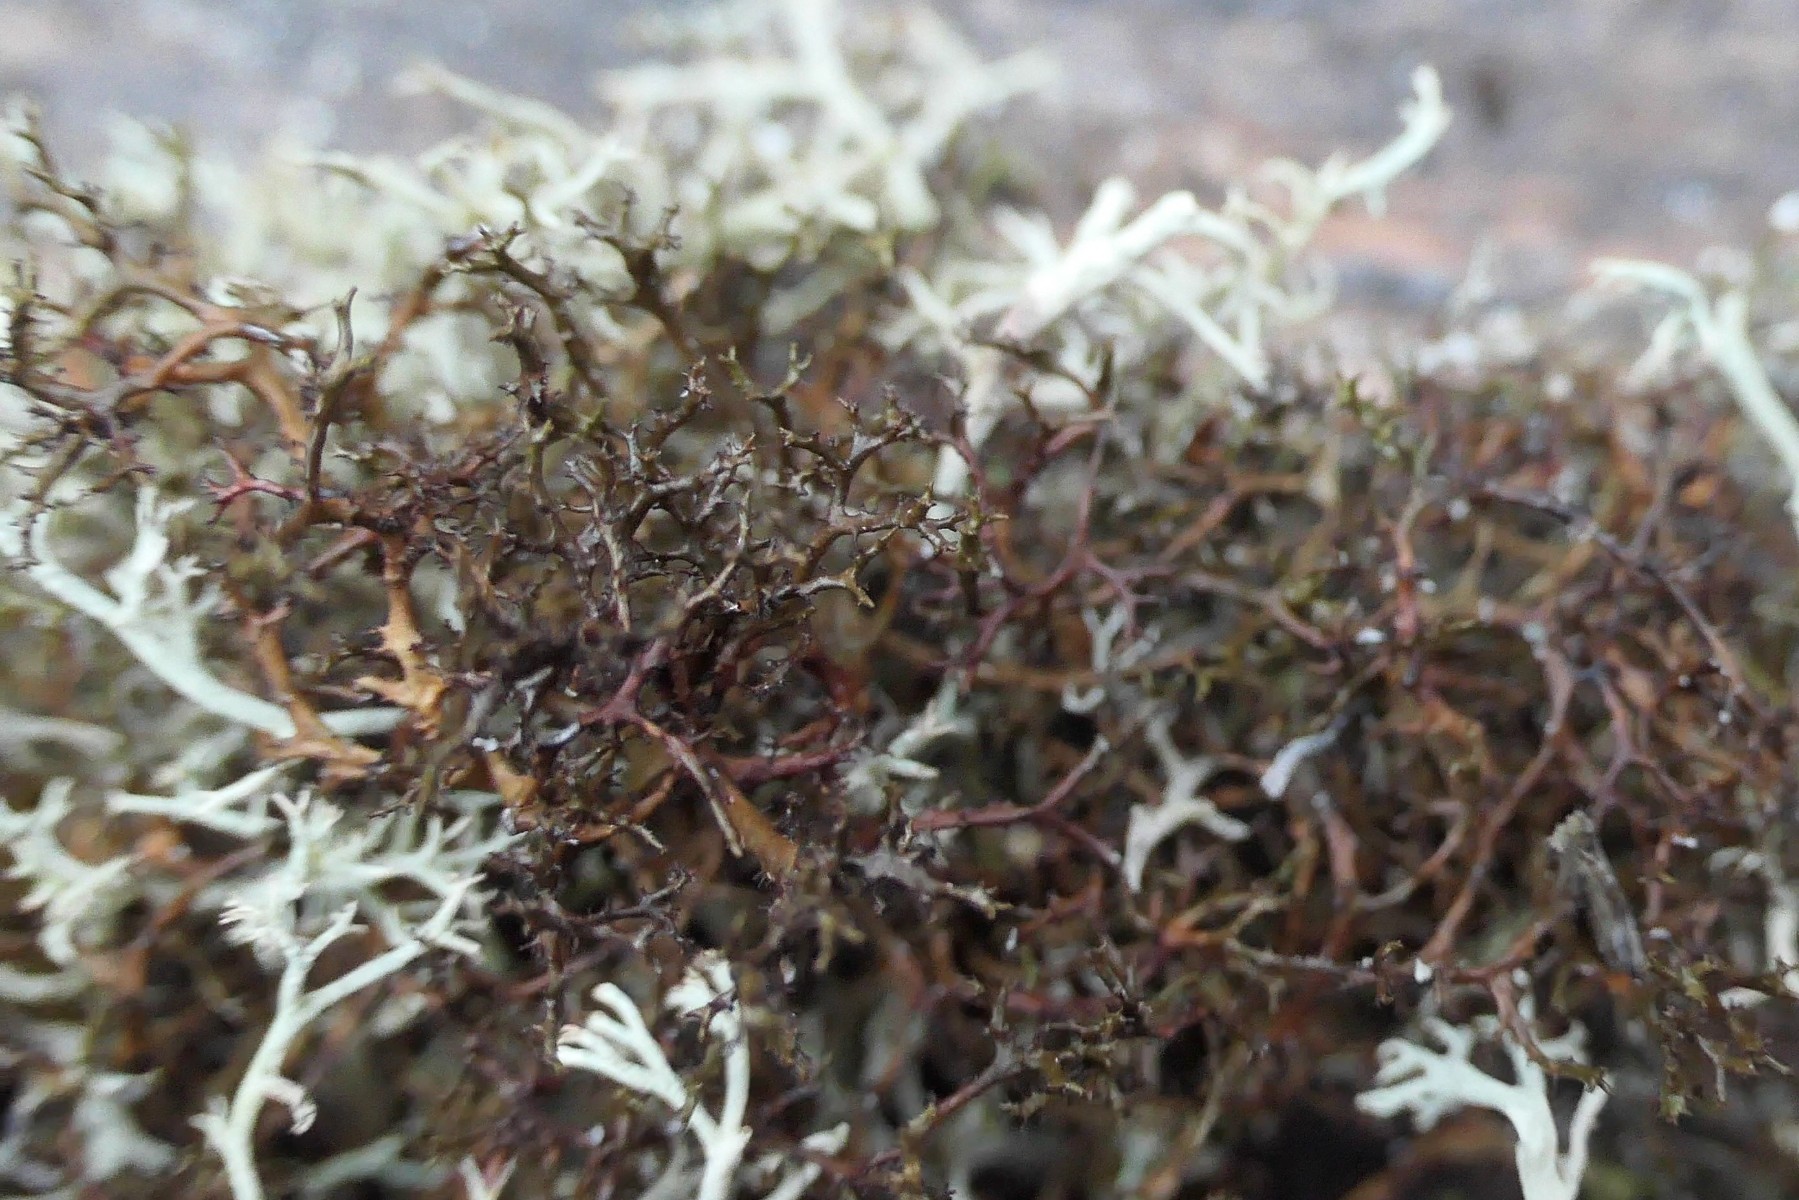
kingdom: Fungi
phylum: Ascomycota
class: Lecanoromycetes
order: Lecanorales
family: Parmeliaceae
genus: Cetraria
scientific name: Cetraria muricata
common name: tue-tjørnelav
